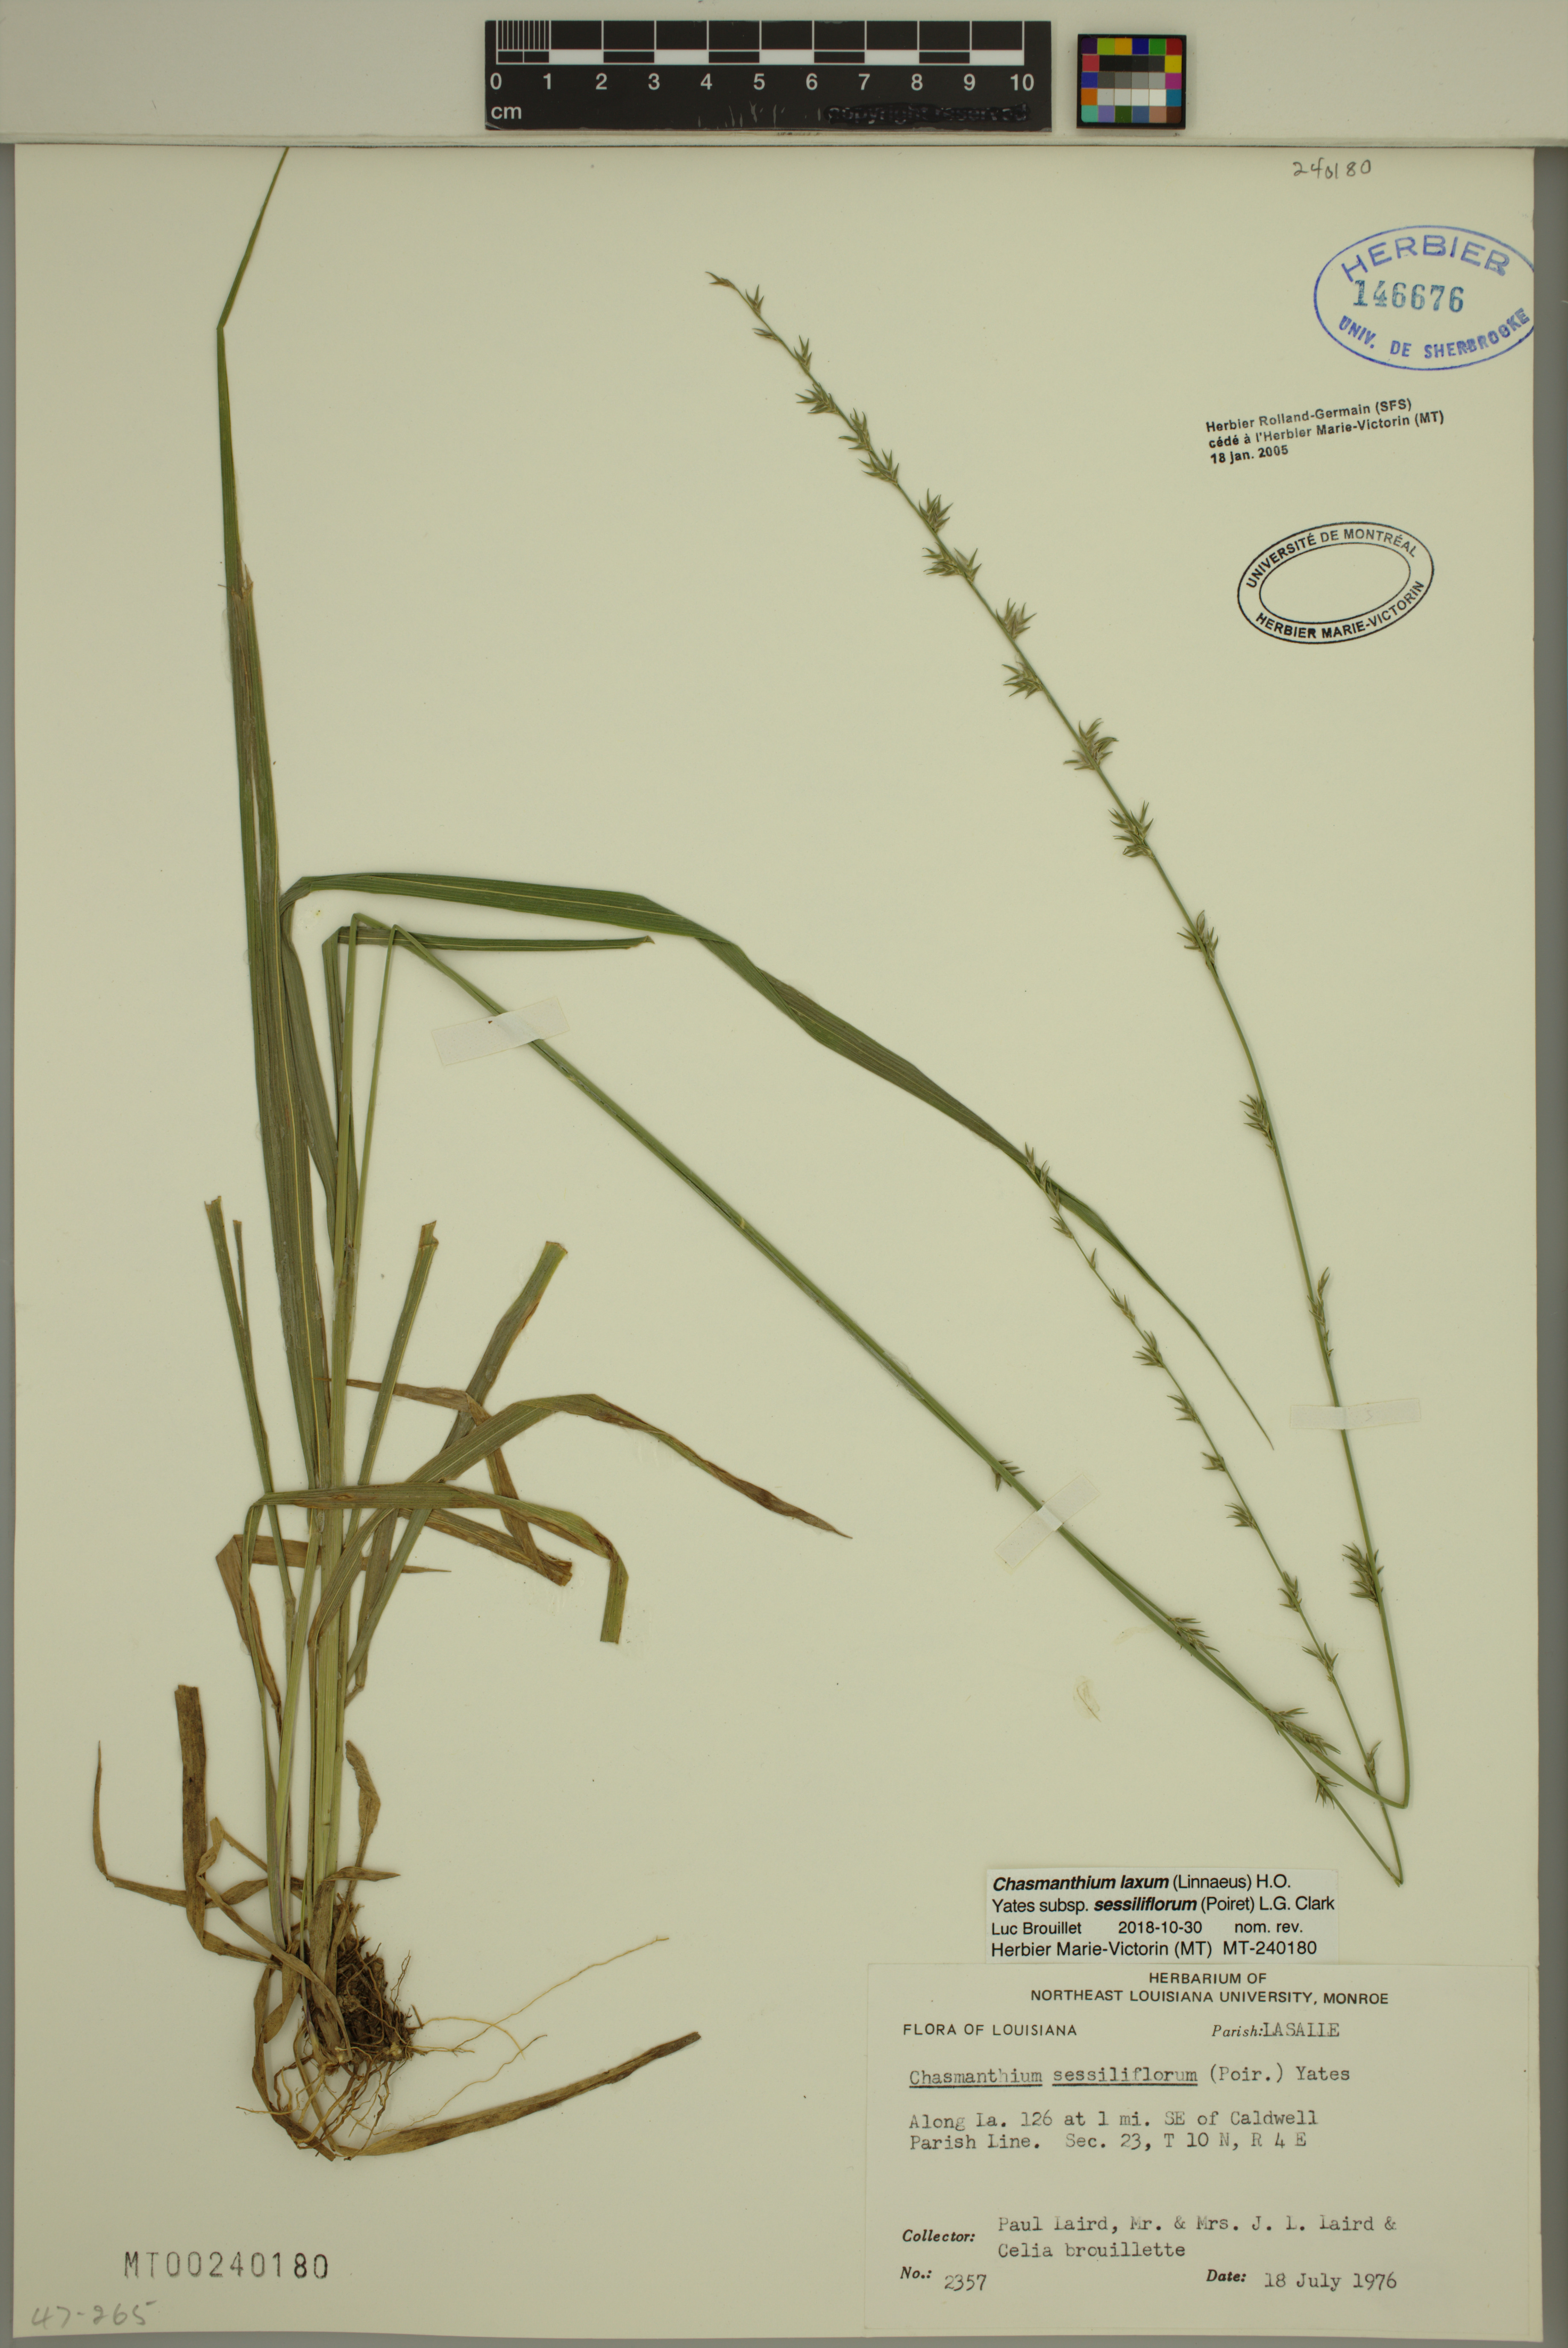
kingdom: Plantae
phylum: Tracheophyta
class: Liliopsida
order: Poales
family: Poaceae
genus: Chasmanthium
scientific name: Chasmanthium laxum
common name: Slender chasmanthium
